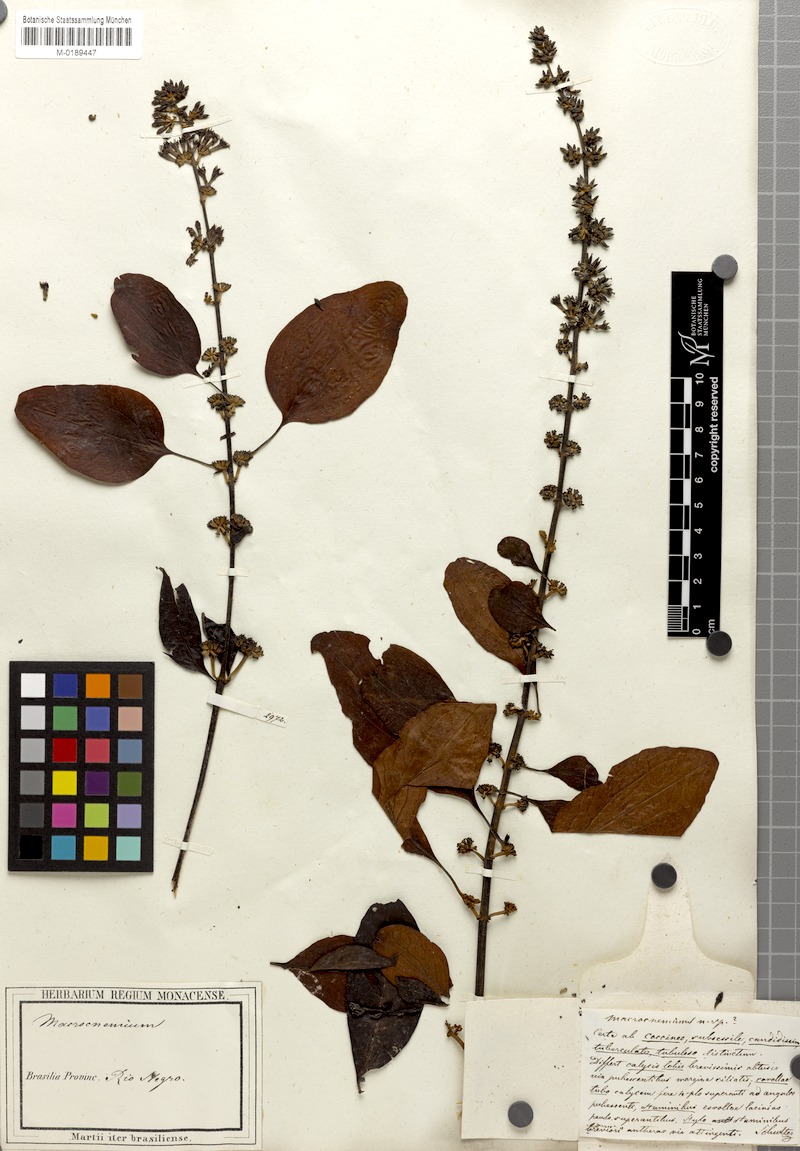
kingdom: Plantae
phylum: Tracheophyta
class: Magnoliopsida
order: Gentianales
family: Rubiaceae
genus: Warszewiczia
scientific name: Warszewiczia coccinea
